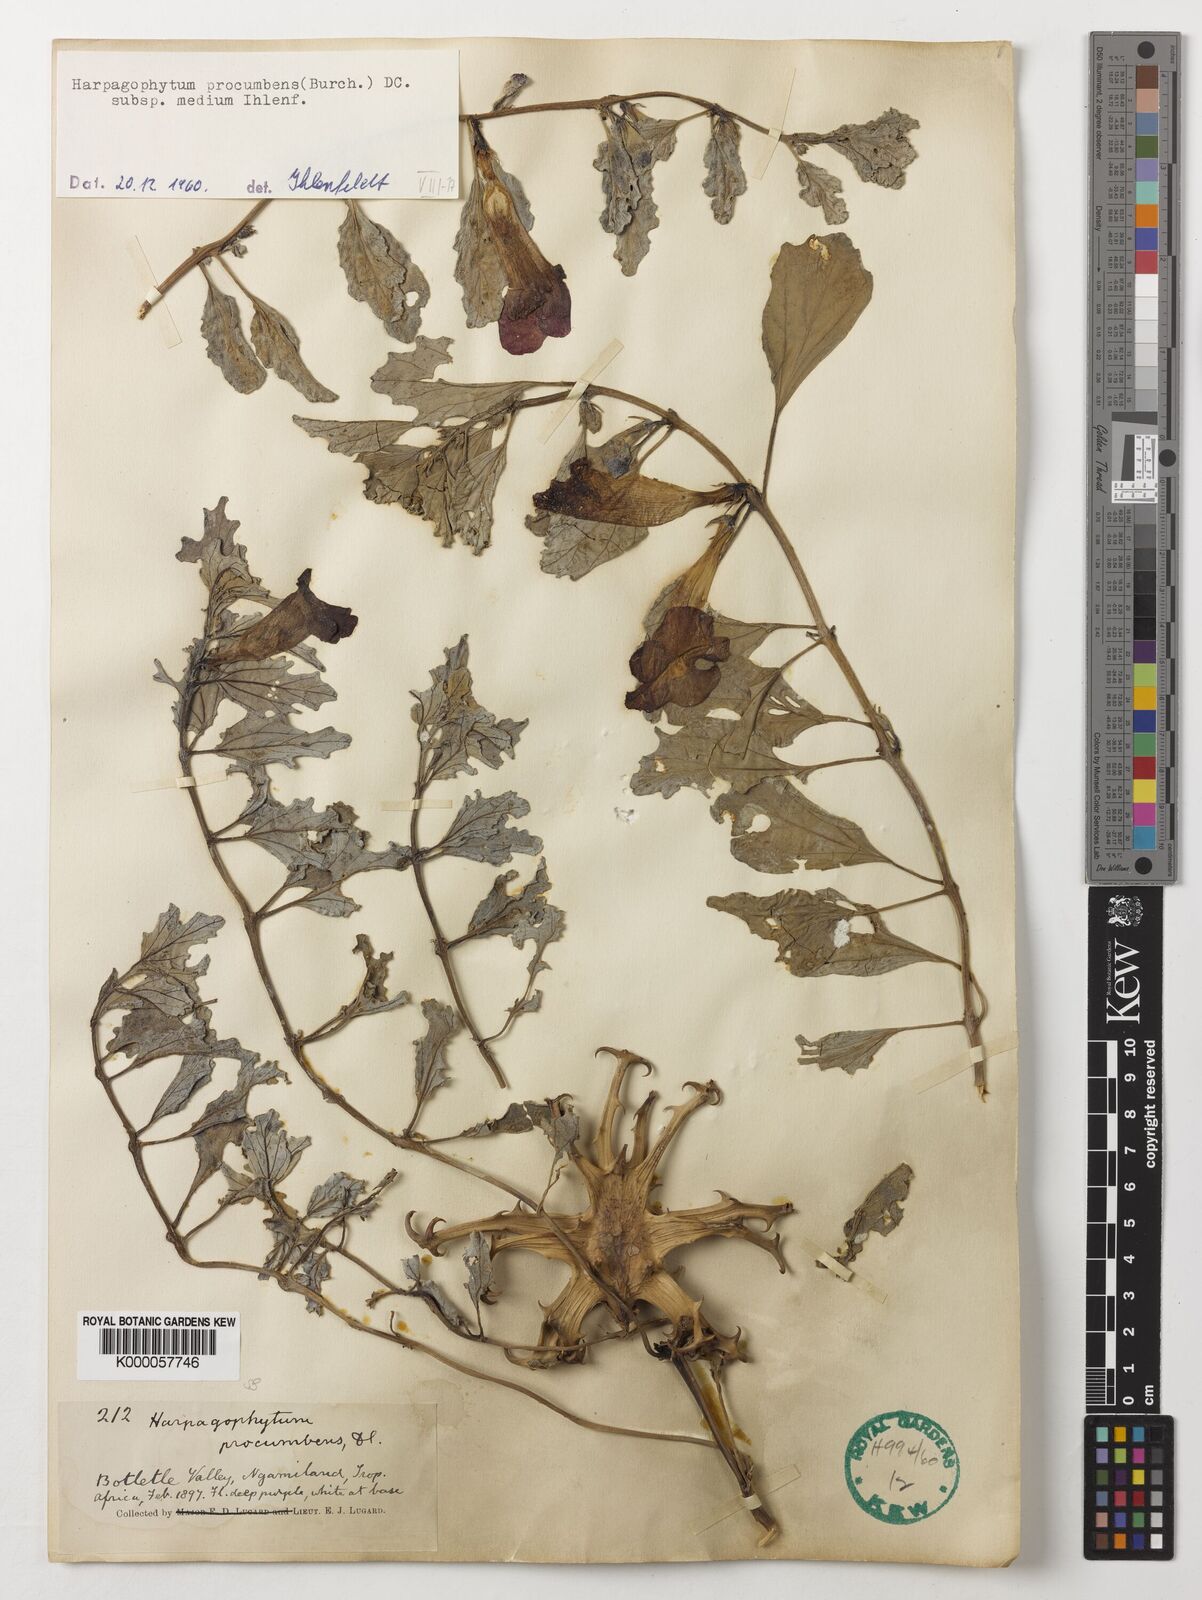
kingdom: Plantae
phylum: Tracheophyta
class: Magnoliopsida
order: Lamiales
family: Pedaliaceae
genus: Harpagophytum
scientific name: Harpagophytum procumbens
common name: Grappleplant
